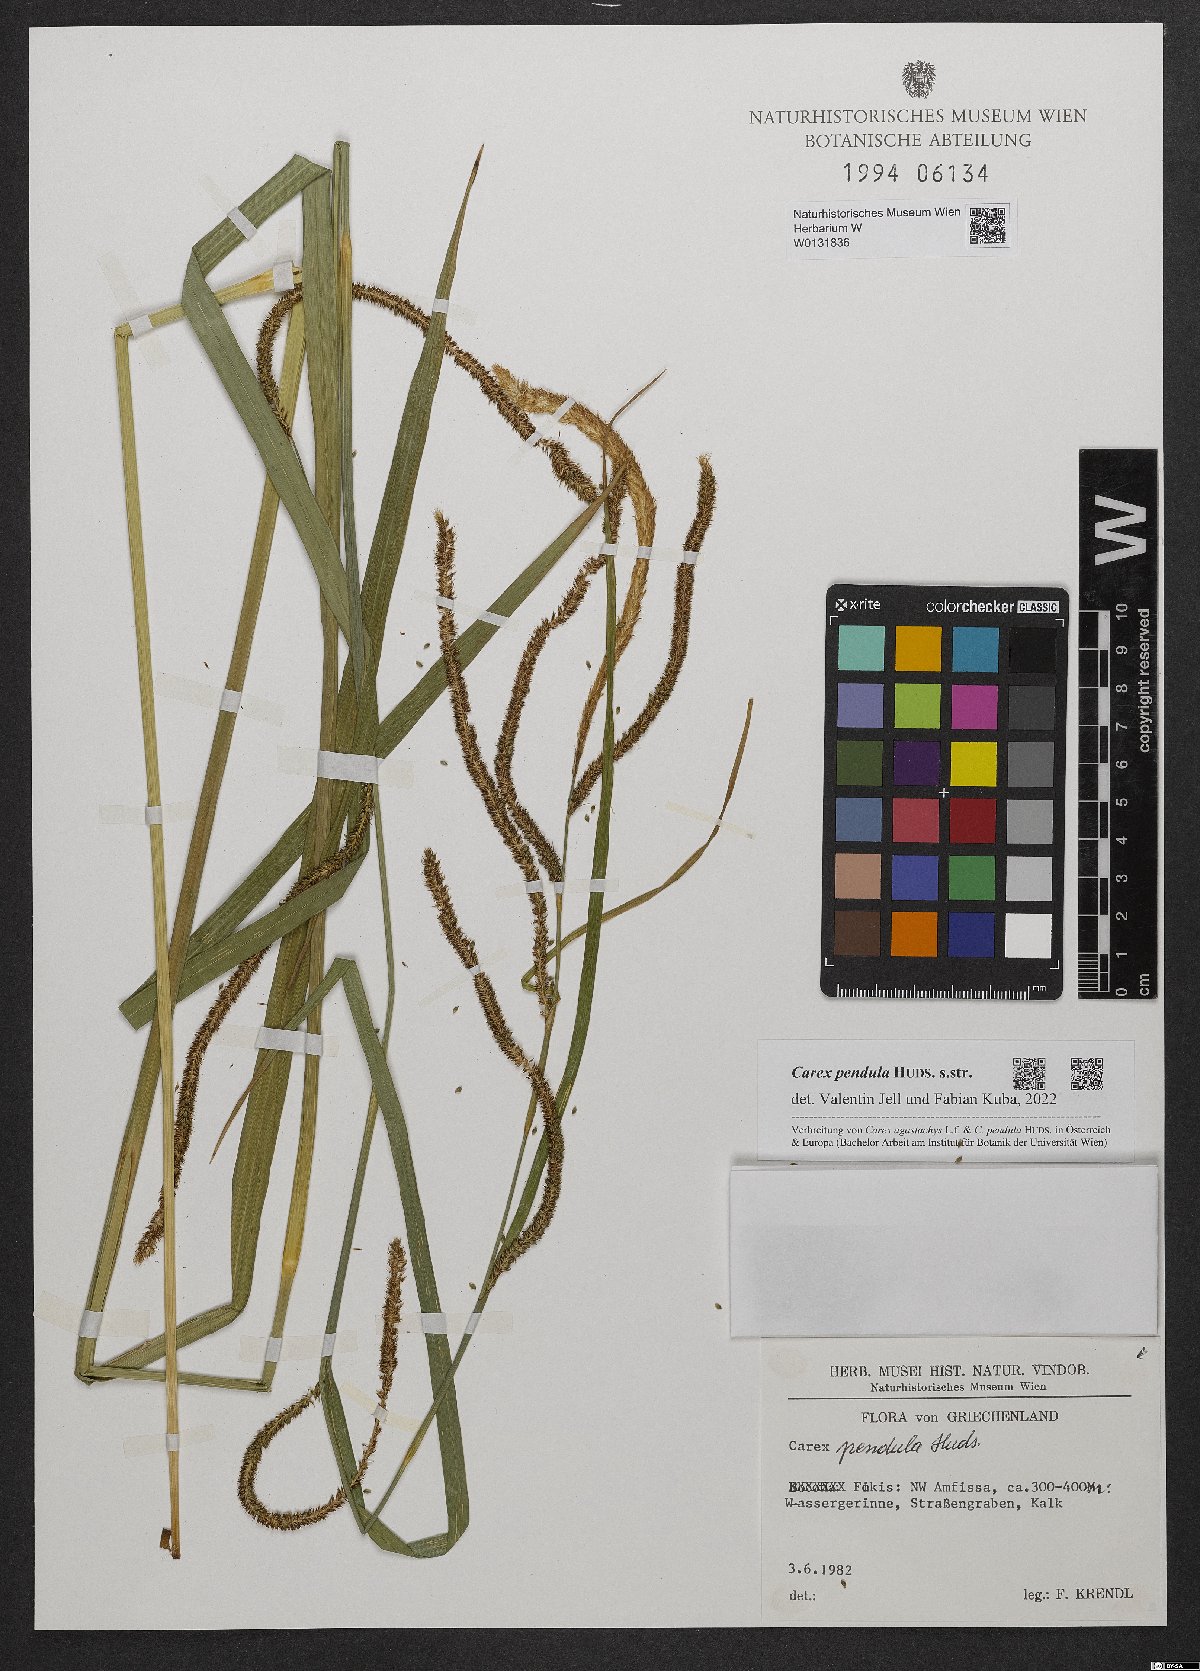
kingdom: Plantae
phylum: Tracheophyta
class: Liliopsida
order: Poales
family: Cyperaceae
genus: Carex
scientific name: Carex pendula
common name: Pendulous sedge
